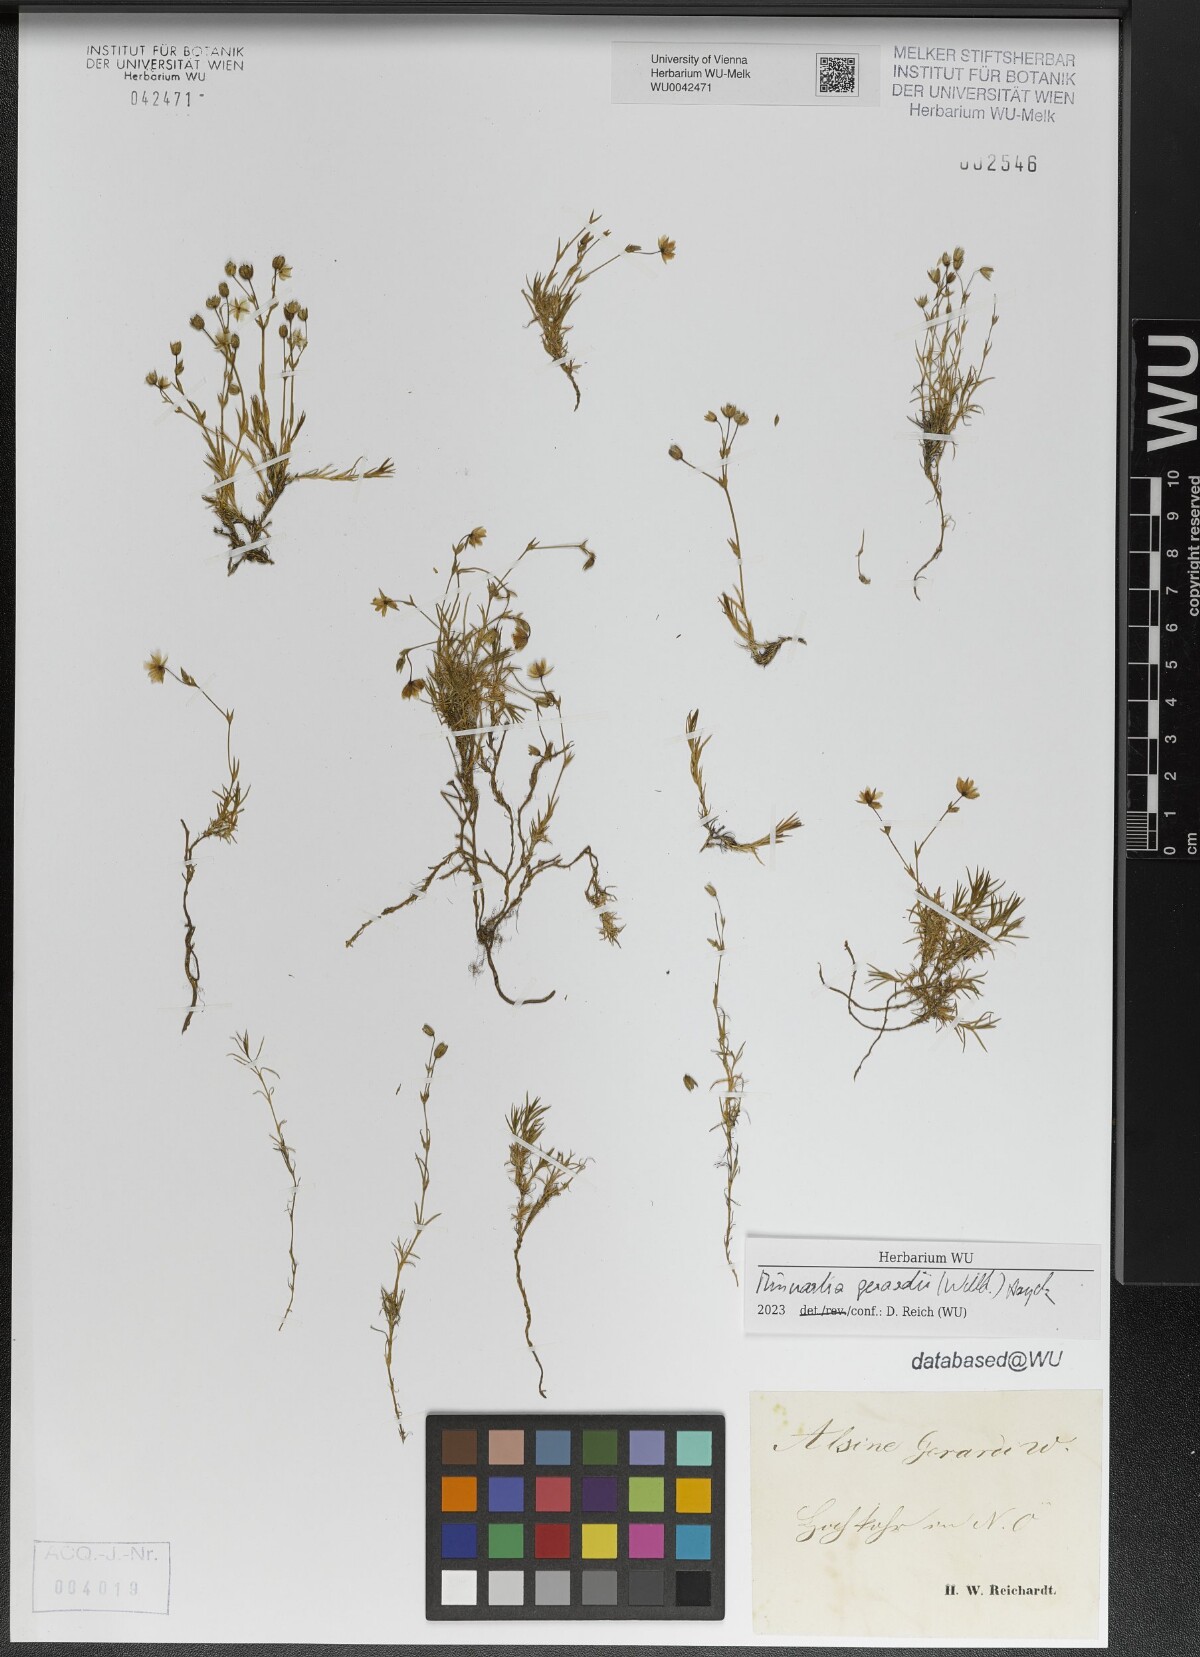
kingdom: Plantae
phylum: Tracheophyta
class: Magnoliopsida
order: Caryophyllales
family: Caryophyllaceae
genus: Sabulina
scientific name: Sabulina verna
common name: Spring sandwort
